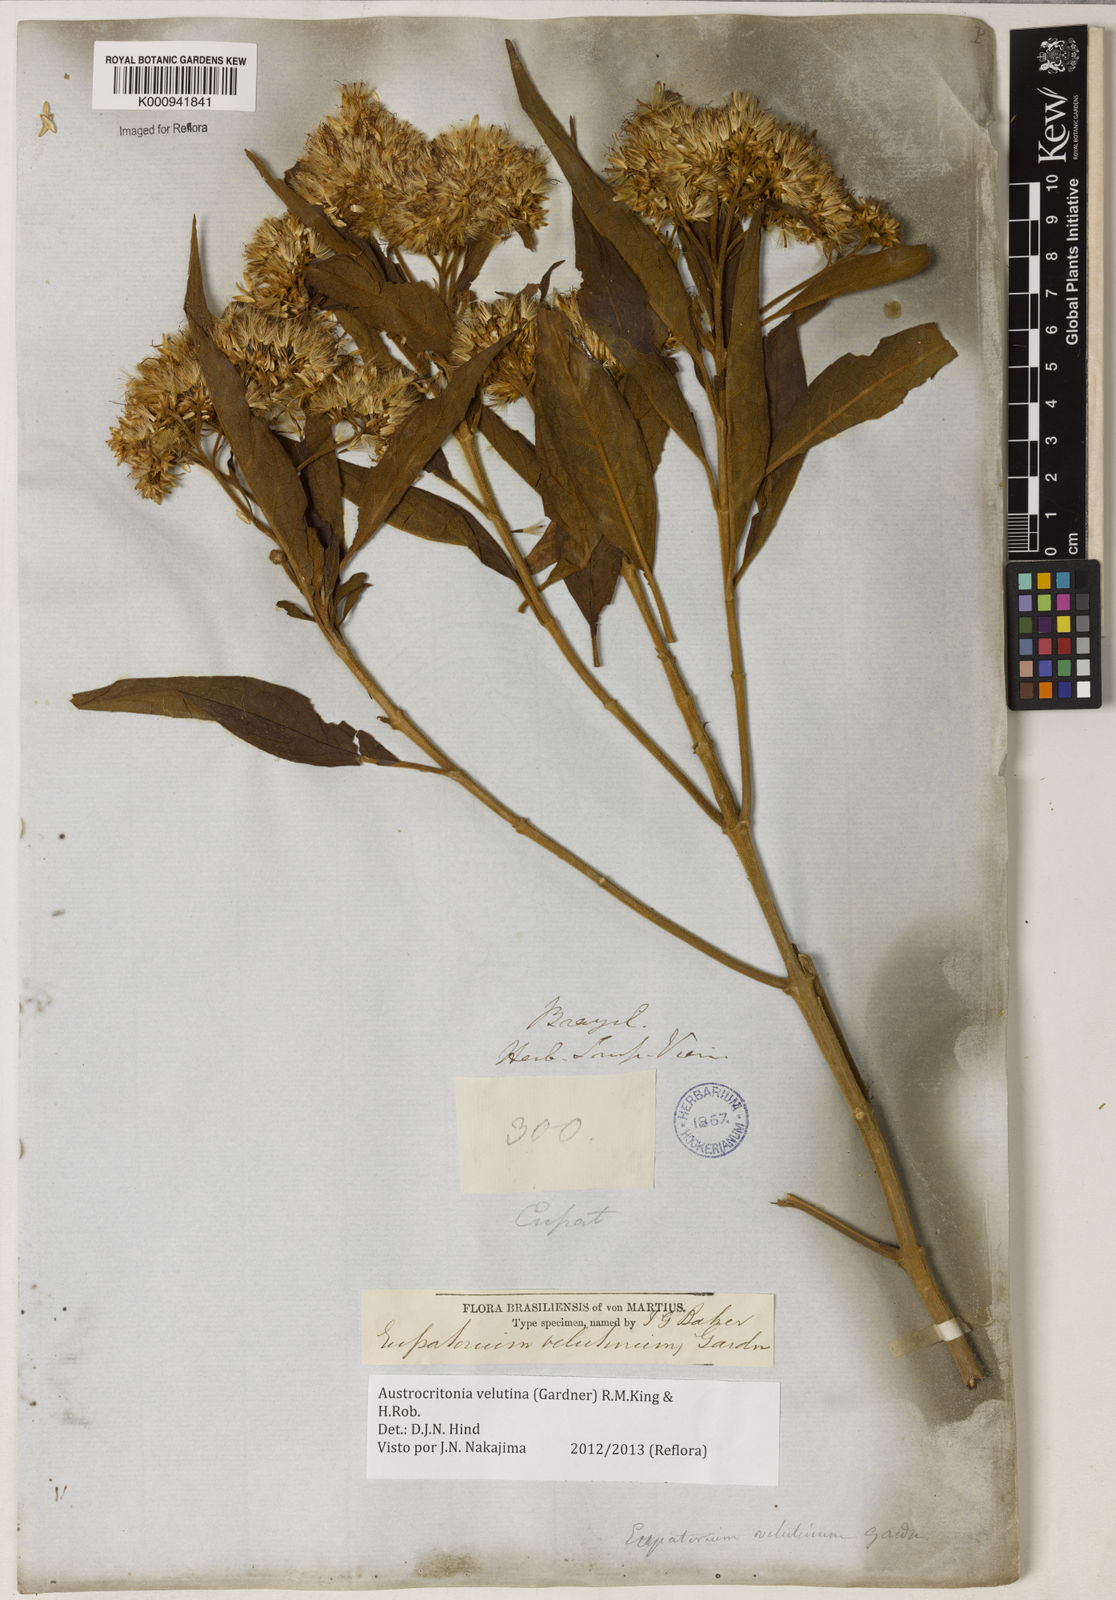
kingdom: Plantae
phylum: Tracheophyta
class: Magnoliopsida
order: Asterales
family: Asteraceae
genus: Austrocritonia
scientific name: Austrocritonia velutina
